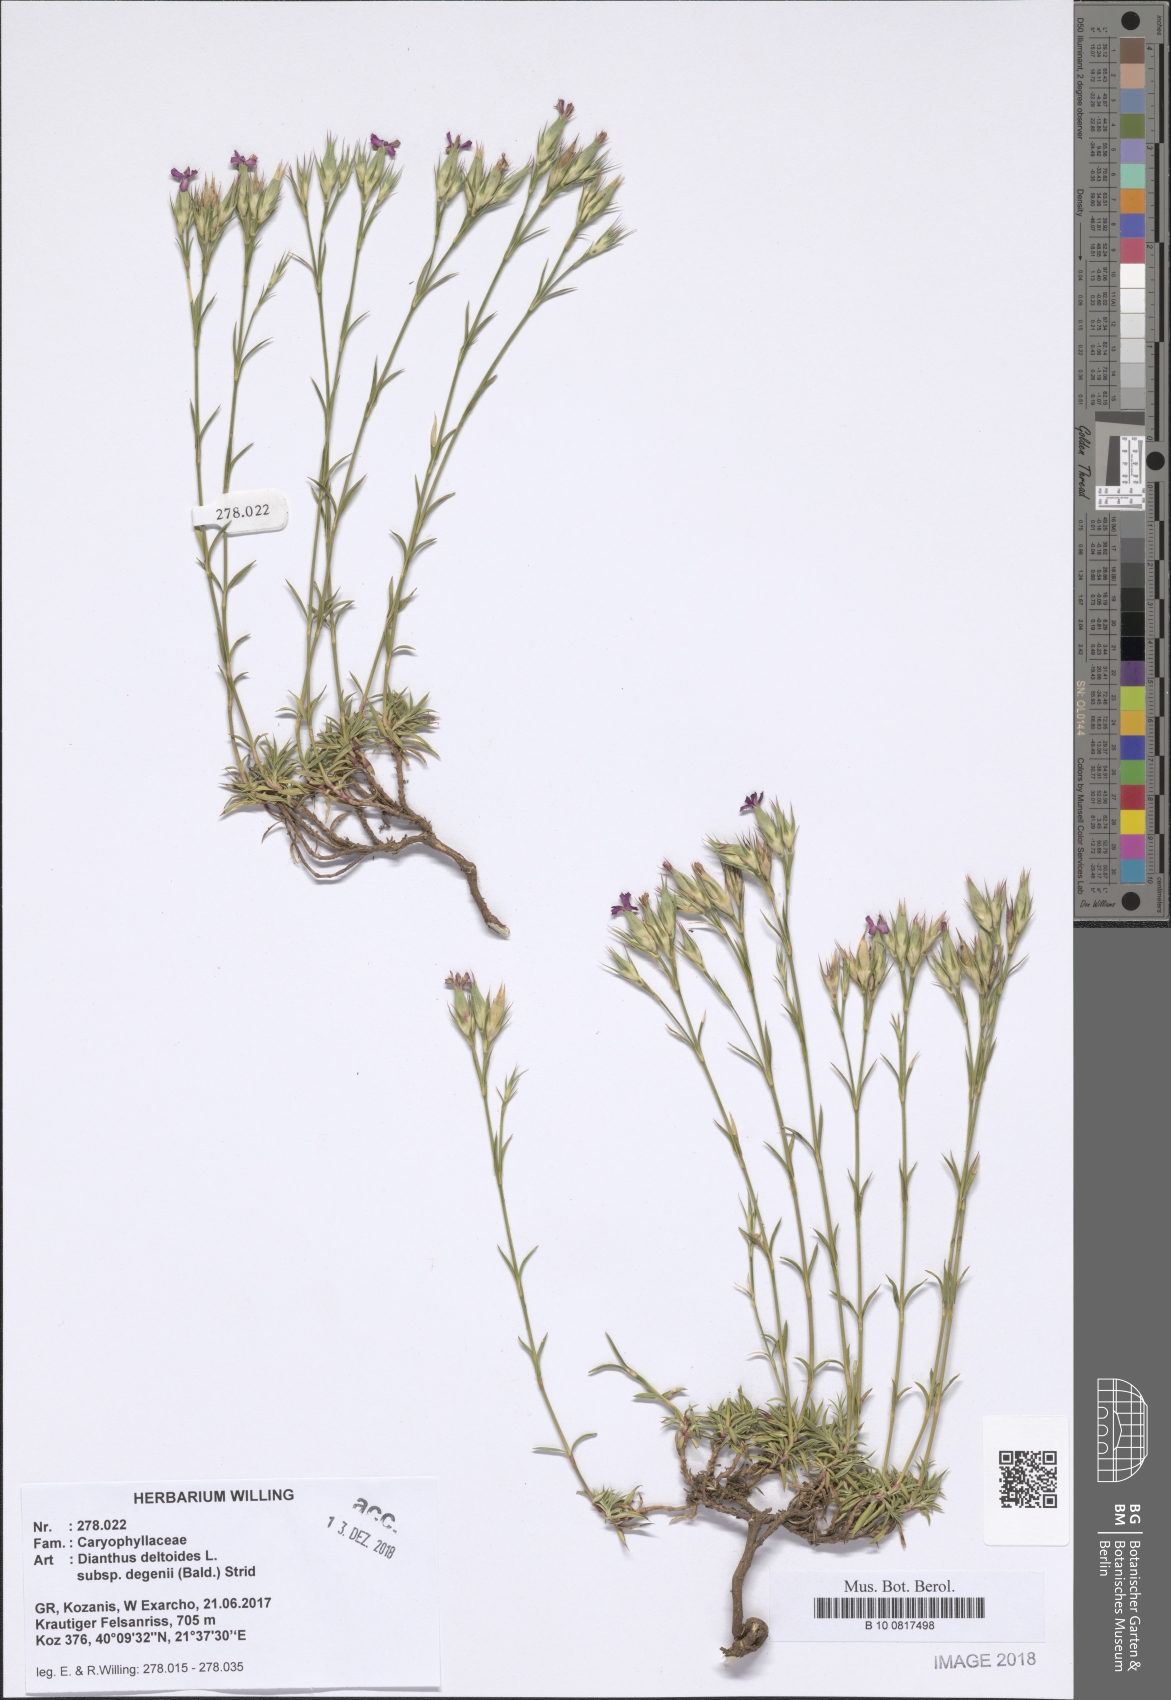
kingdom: Plantae
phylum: Tracheophyta
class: Magnoliopsida
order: Caryophyllales
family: Caryophyllaceae
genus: Dianthus
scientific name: Dianthus deltoides
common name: Maiden pink
